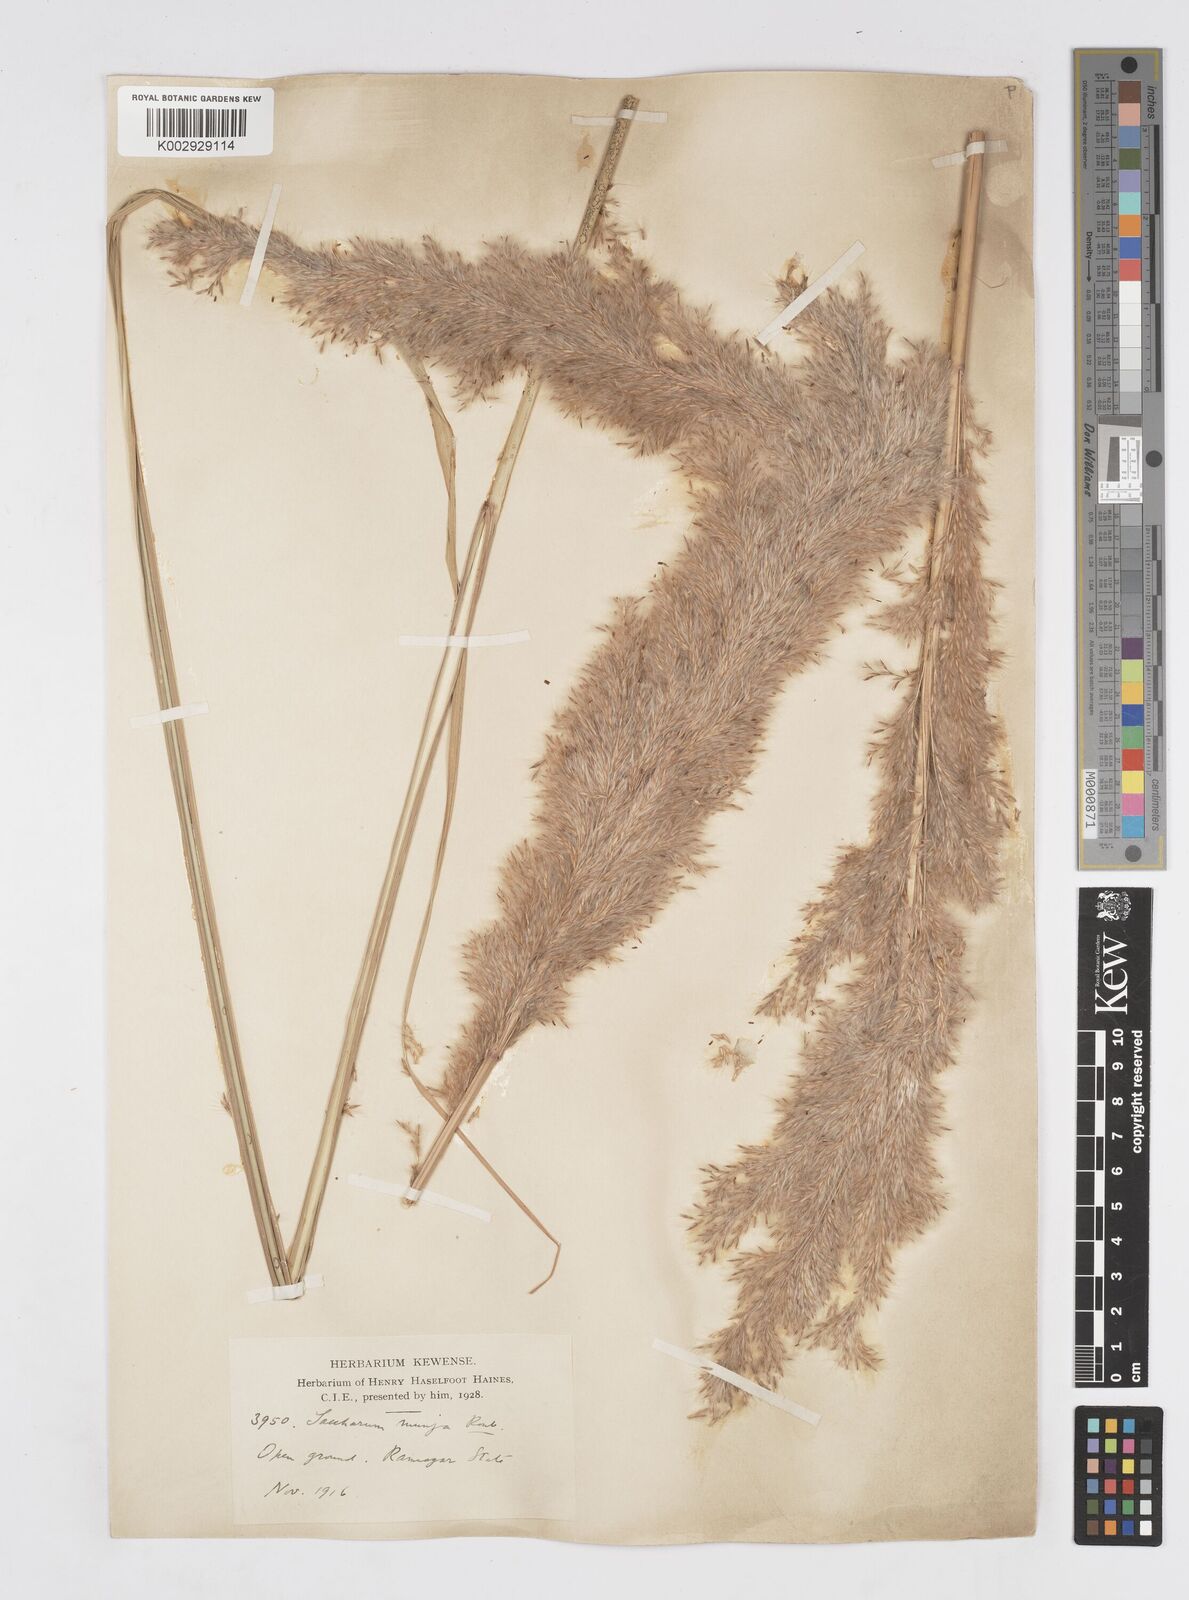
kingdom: Plantae
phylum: Tracheophyta
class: Liliopsida
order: Poales
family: Poaceae
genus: Tripidium
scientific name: Tripidium bengalense
